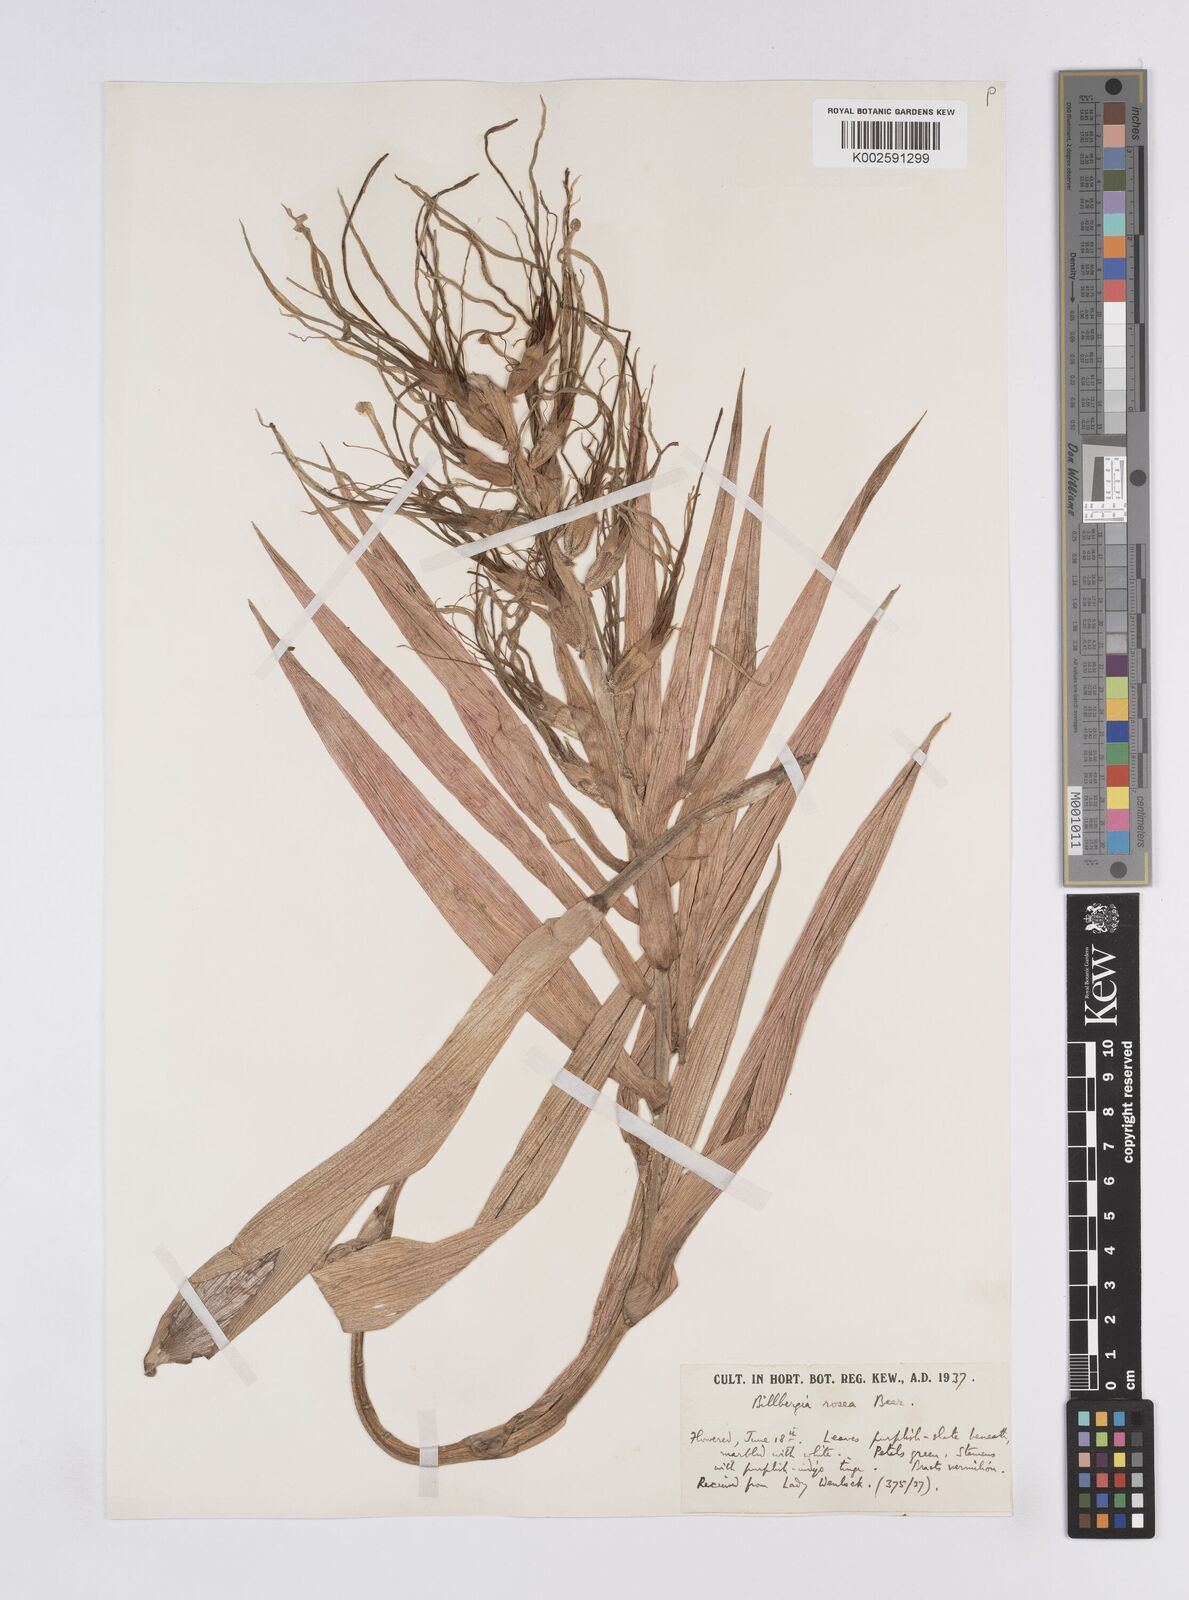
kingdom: Plantae
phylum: Tracheophyta
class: Liliopsida
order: Poales
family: Bromeliaceae
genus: Billbergia
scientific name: Billbergia rosea
